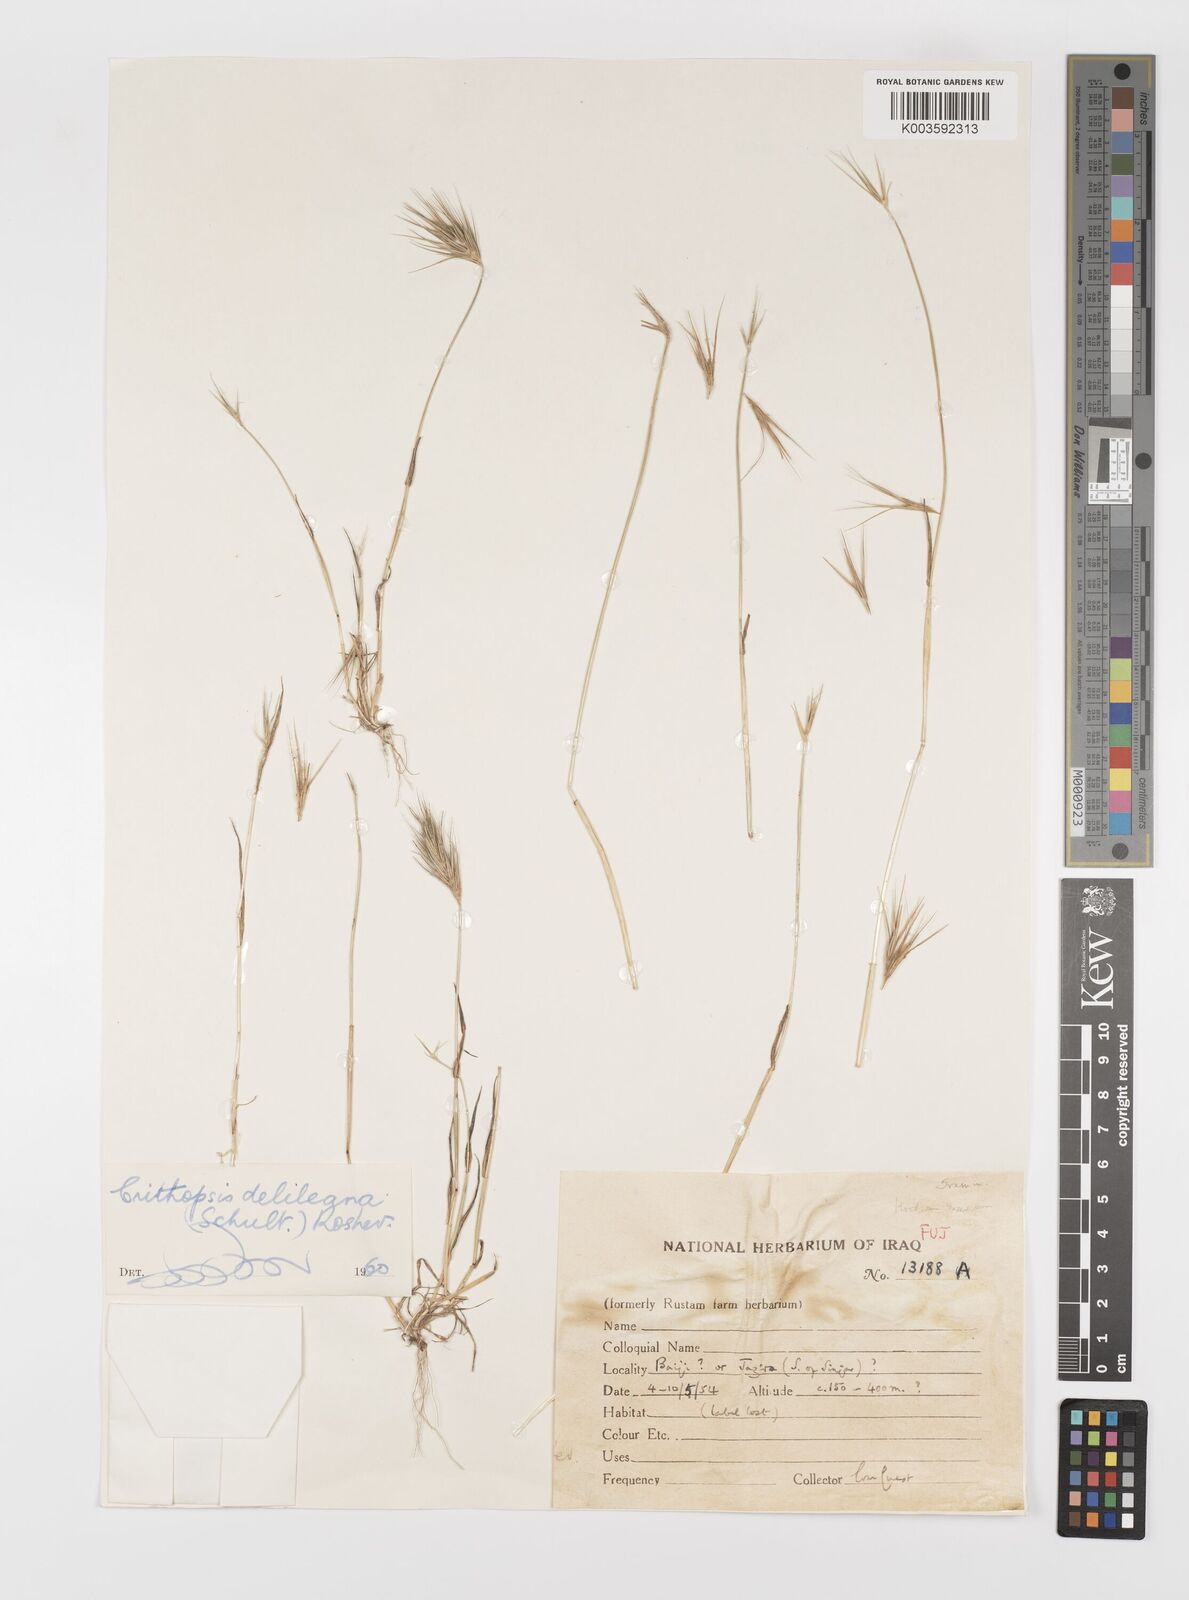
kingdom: Plantae
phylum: Tracheophyta
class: Liliopsida
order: Poales
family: Poaceae
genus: Crithopsis
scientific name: Crithopsis delileana
